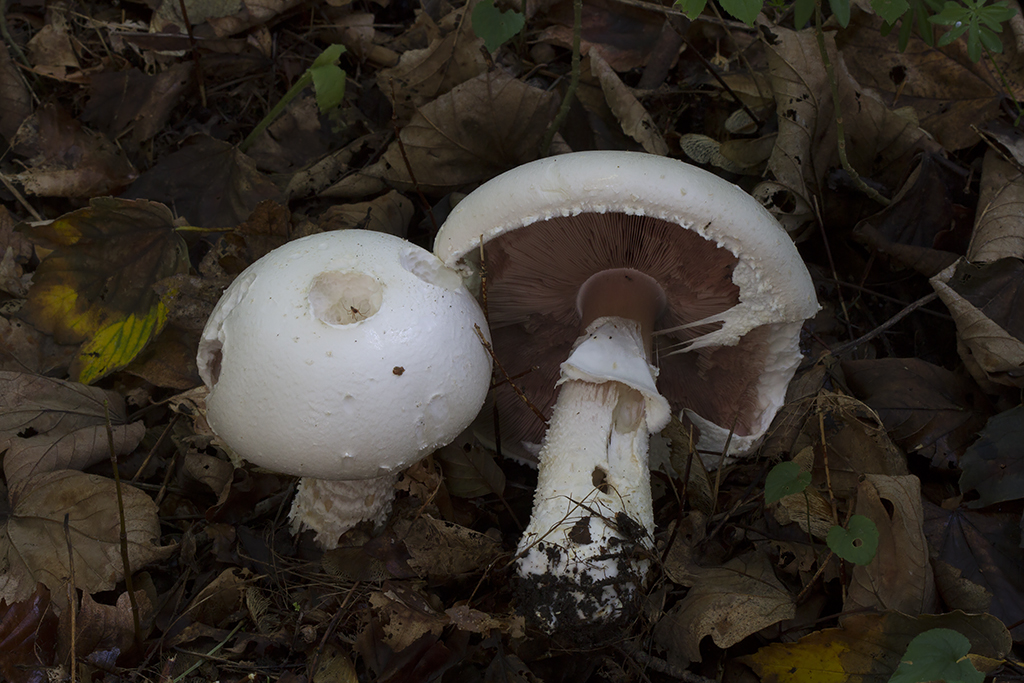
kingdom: Fungi
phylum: Basidiomycota
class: Agaricomycetes
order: Agaricales
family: Agaricaceae
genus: Agaricus
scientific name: Agaricus crocodilinus
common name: landsby-champignon
